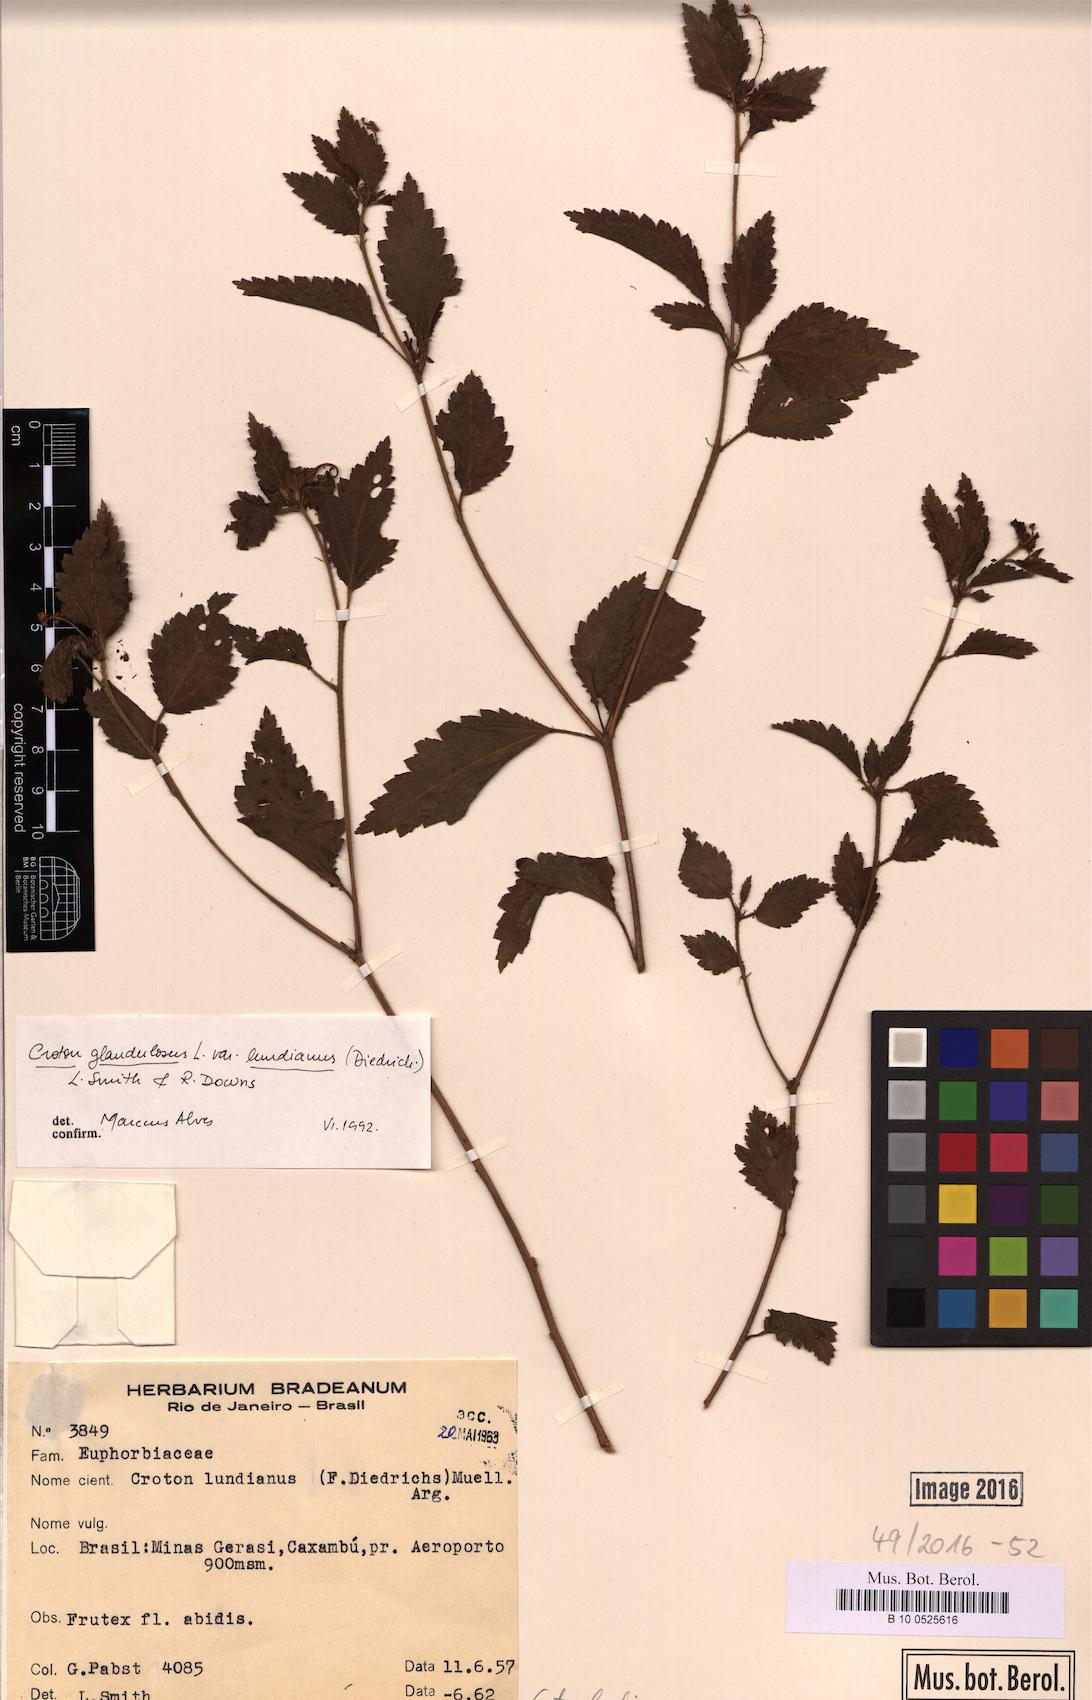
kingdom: Plantae
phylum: Tracheophyta
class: Magnoliopsida
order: Malpighiales
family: Euphorbiaceae
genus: Croton
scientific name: Croton lundianus
